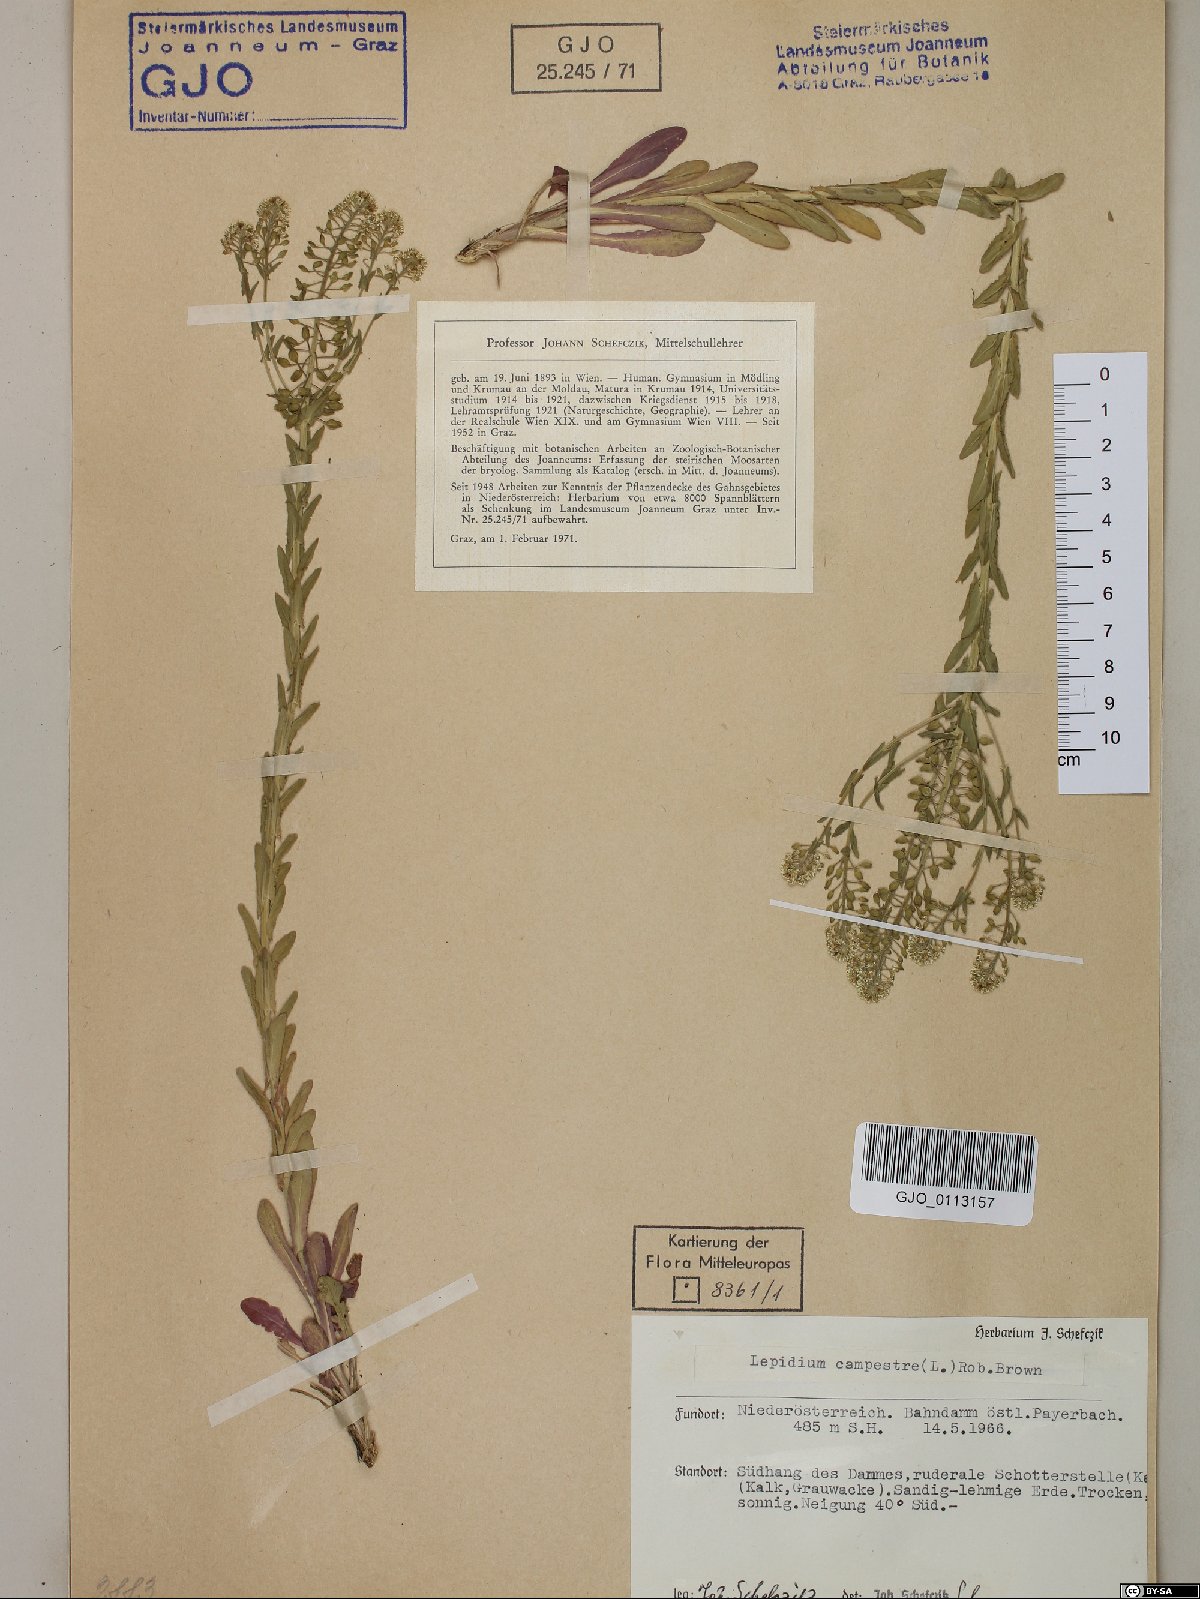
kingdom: Plantae
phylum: Tracheophyta
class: Magnoliopsida
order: Brassicales
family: Brassicaceae
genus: Lepidium
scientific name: Lepidium campestre
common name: Field pepperwort
